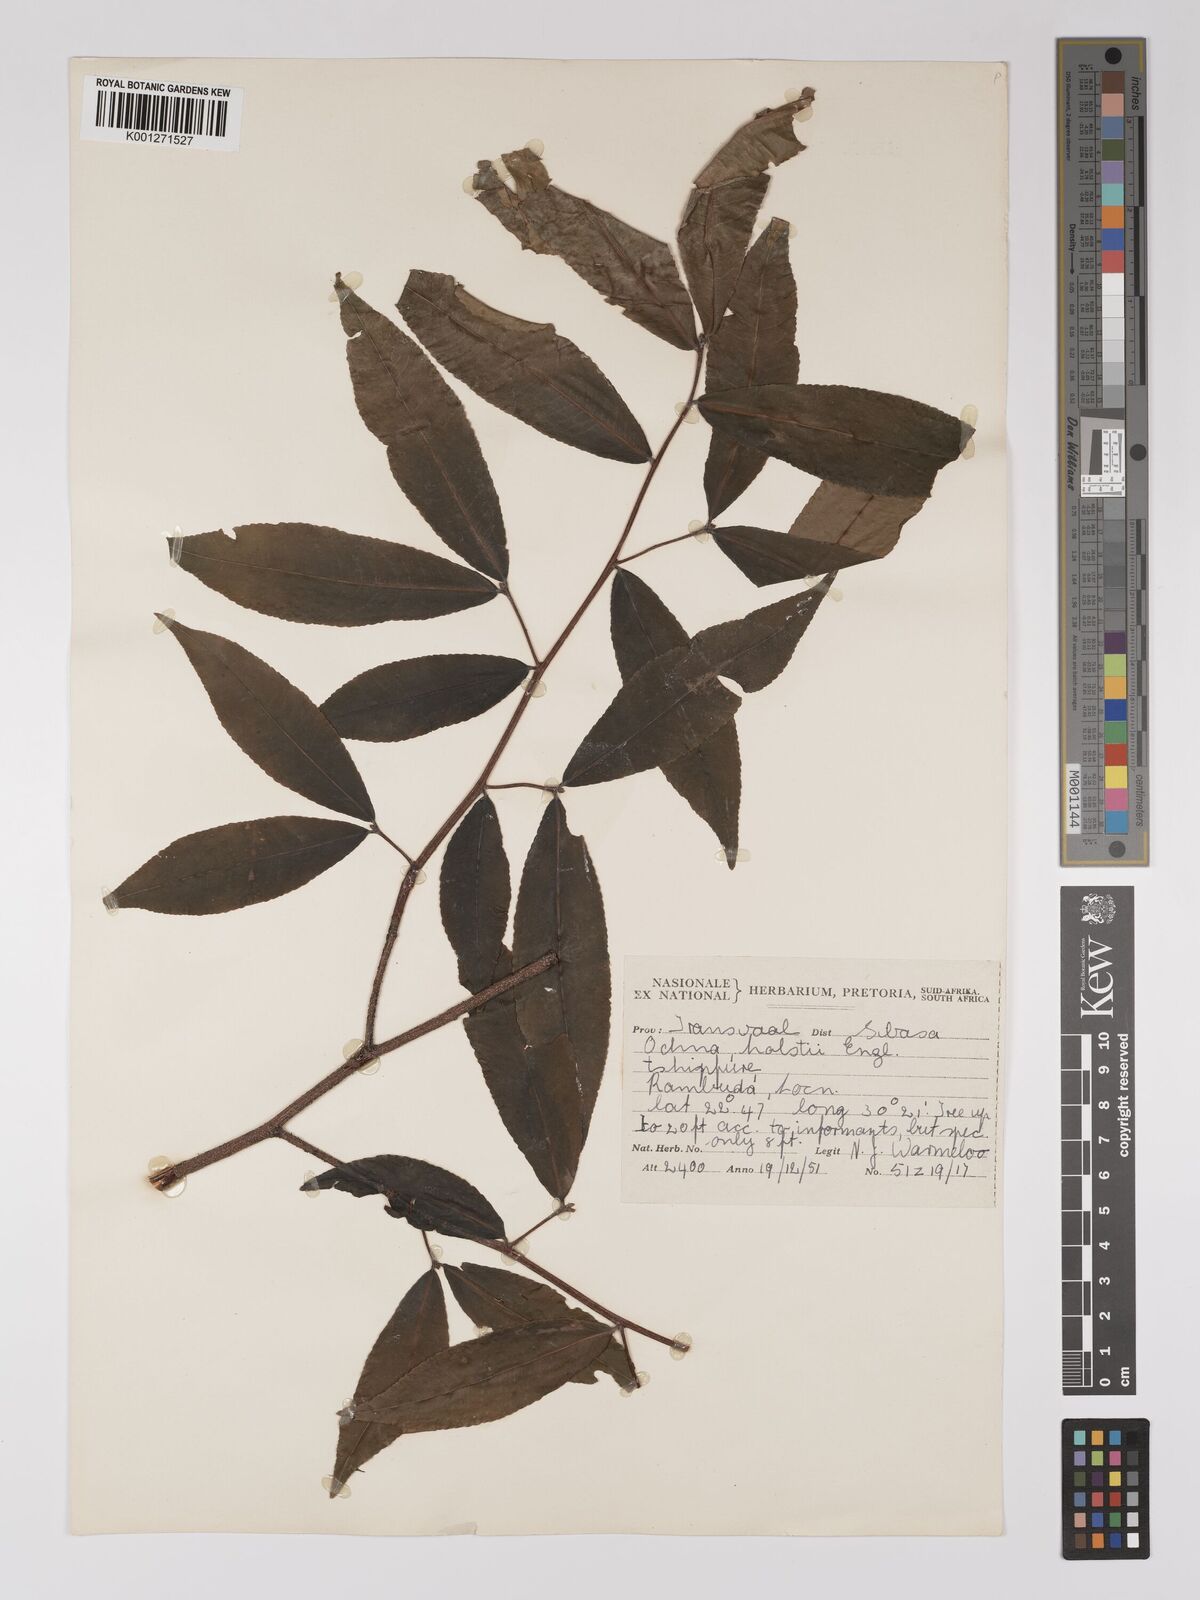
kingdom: Plantae
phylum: Tracheophyta
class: Magnoliopsida
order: Malpighiales
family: Ochnaceae
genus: Ochna
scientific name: Ochna holstii
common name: Red ironwood
